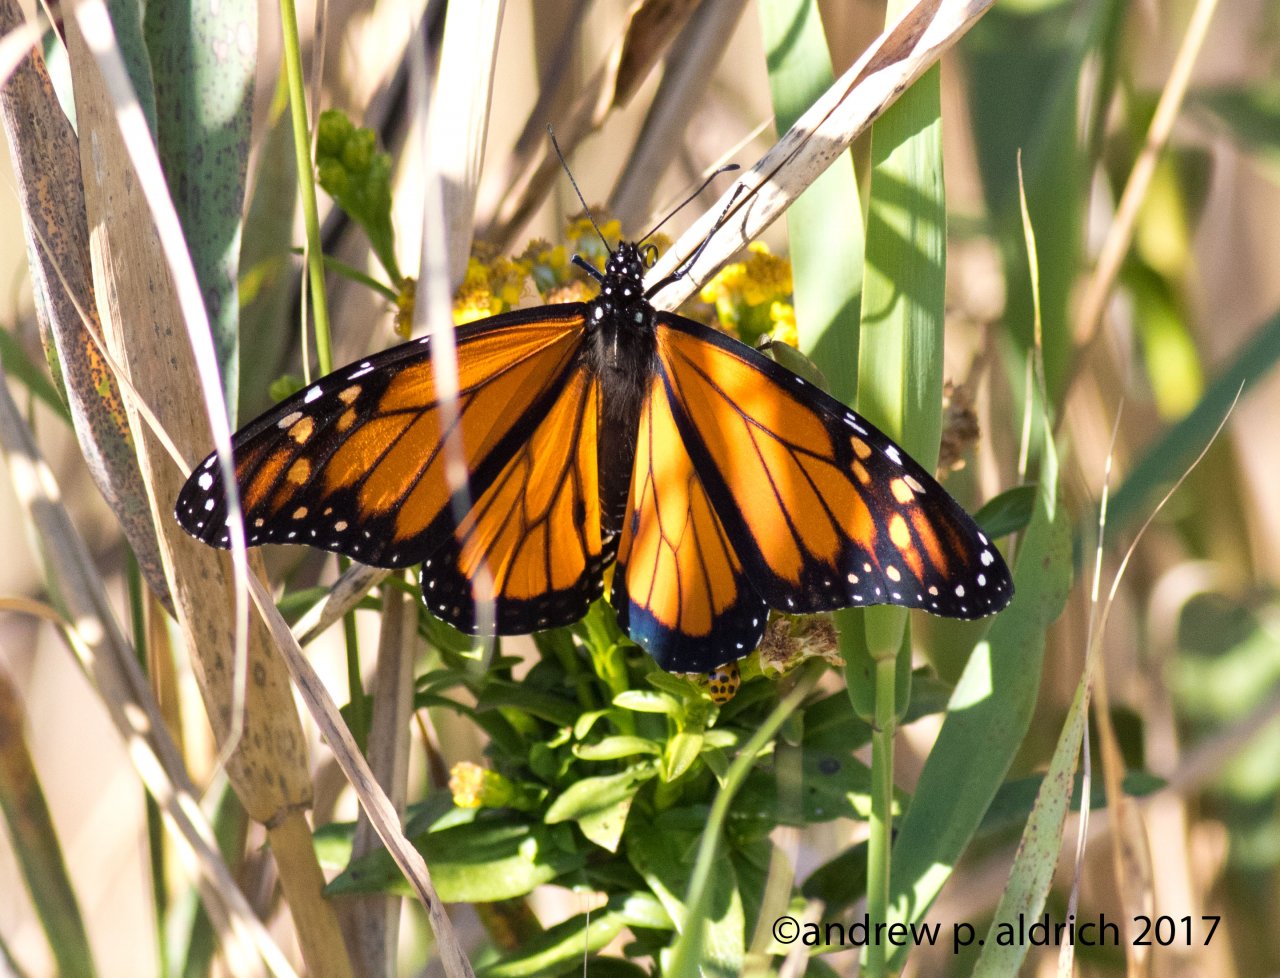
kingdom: Animalia
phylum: Arthropoda
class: Insecta
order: Lepidoptera
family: Nymphalidae
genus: Danaus
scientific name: Danaus plexippus
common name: Monarch
